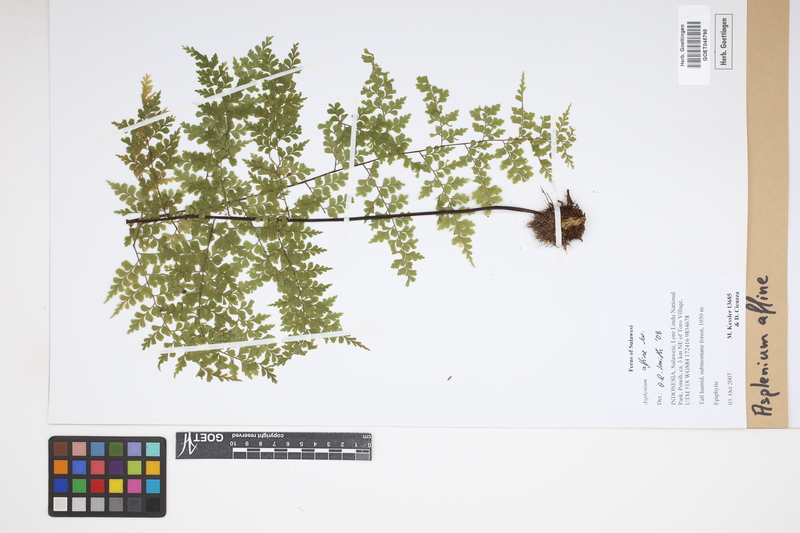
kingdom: Plantae
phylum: Tracheophyta
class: Polypodiopsida
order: Polypodiales
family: Aspleniaceae
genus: Asplenium
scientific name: Asplenium affine
